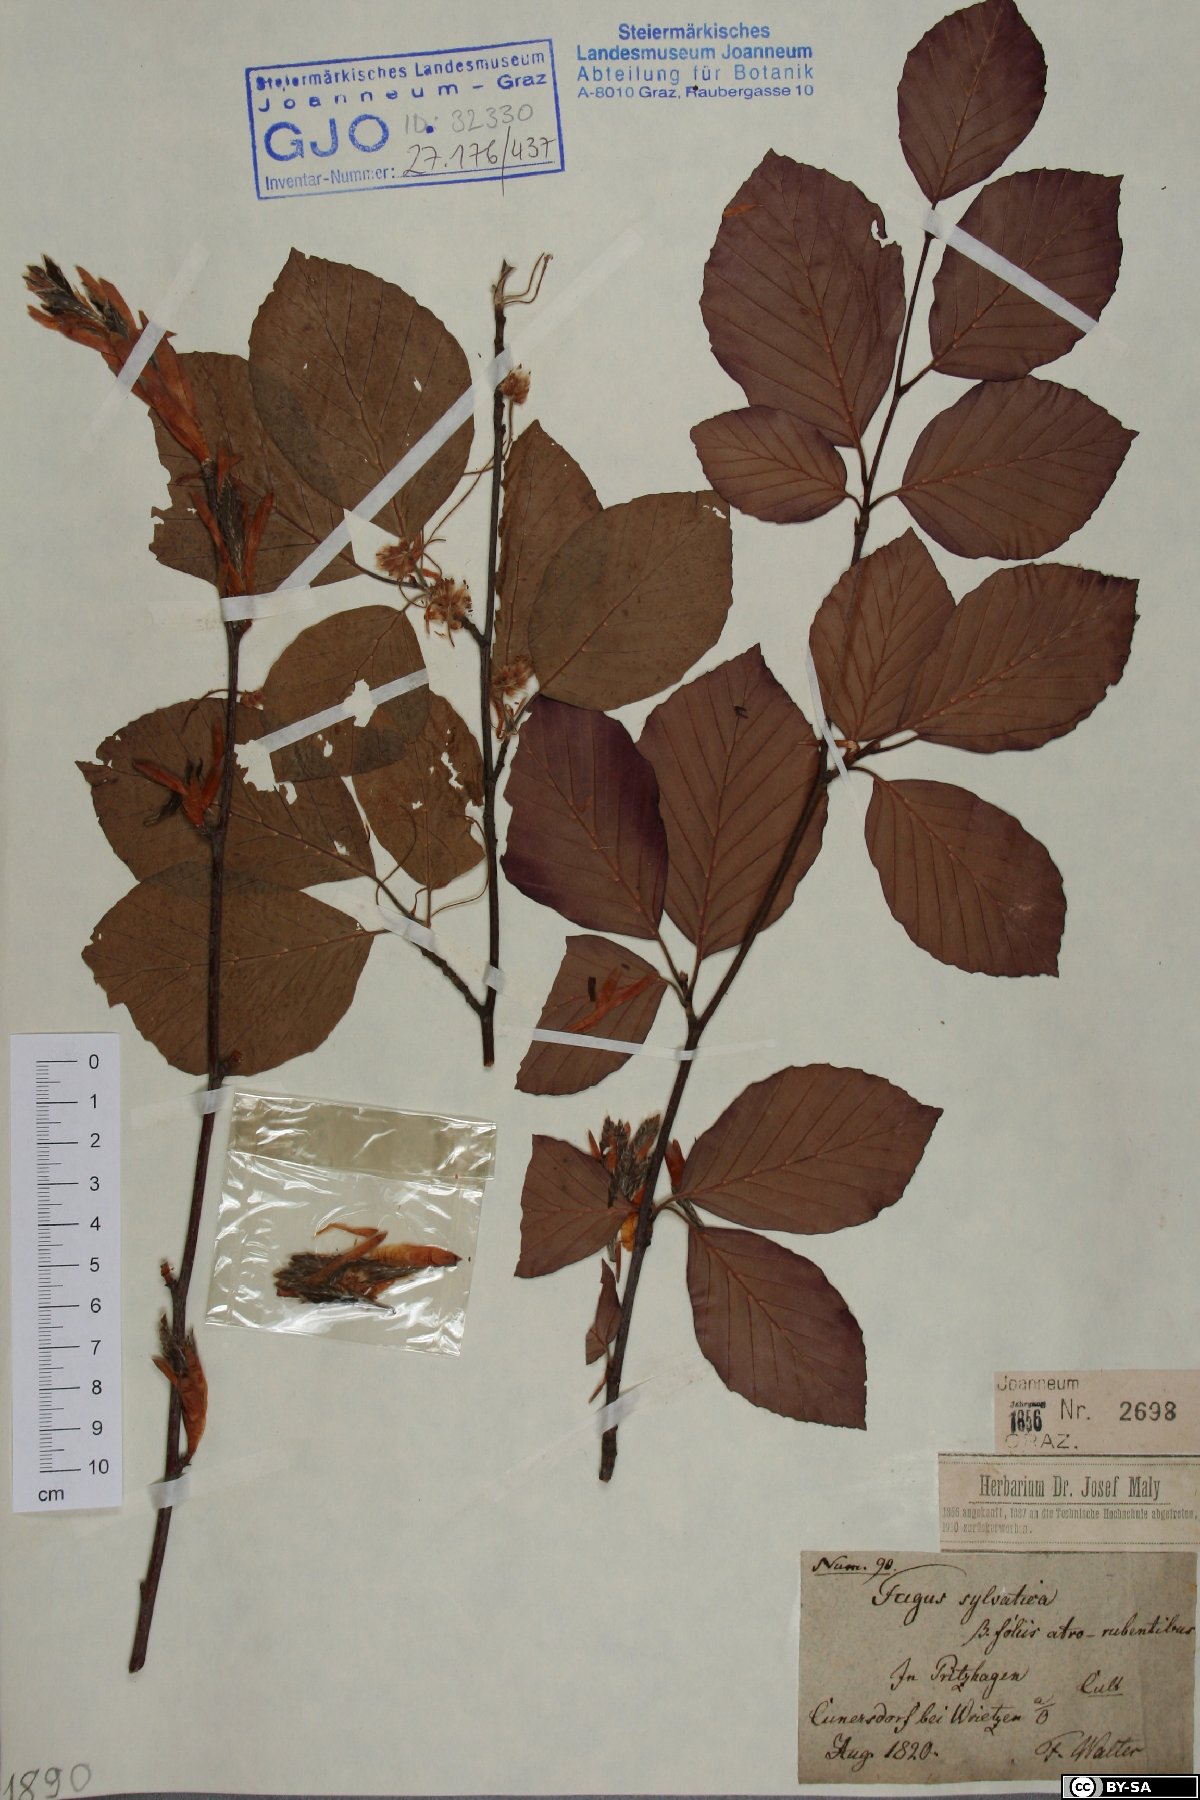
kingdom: Plantae
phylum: Tracheophyta
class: Magnoliopsida
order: Fagales
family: Fagaceae
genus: Fagus
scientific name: Fagus sylvatica
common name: Beech
